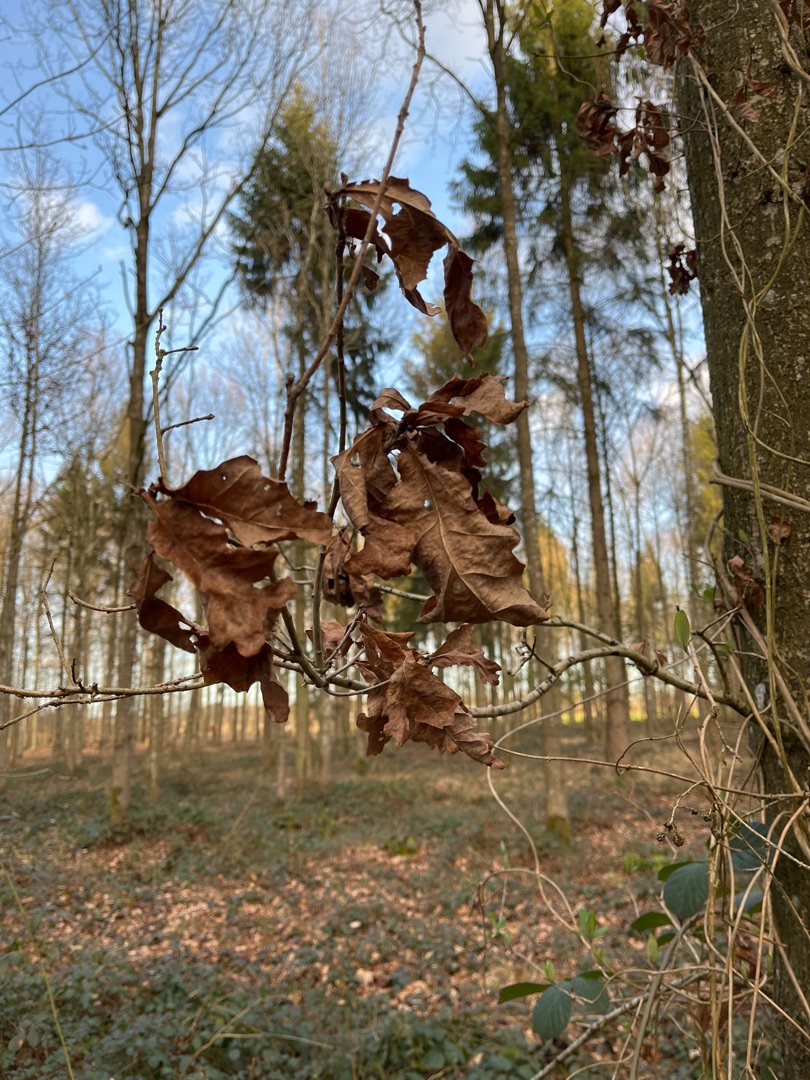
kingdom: Plantae
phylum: Tracheophyta
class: Magnoliopsida
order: Fagales
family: Fagaceae
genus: Quercus
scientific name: Quercus robur
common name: Stilk-eg/almindelig eg
